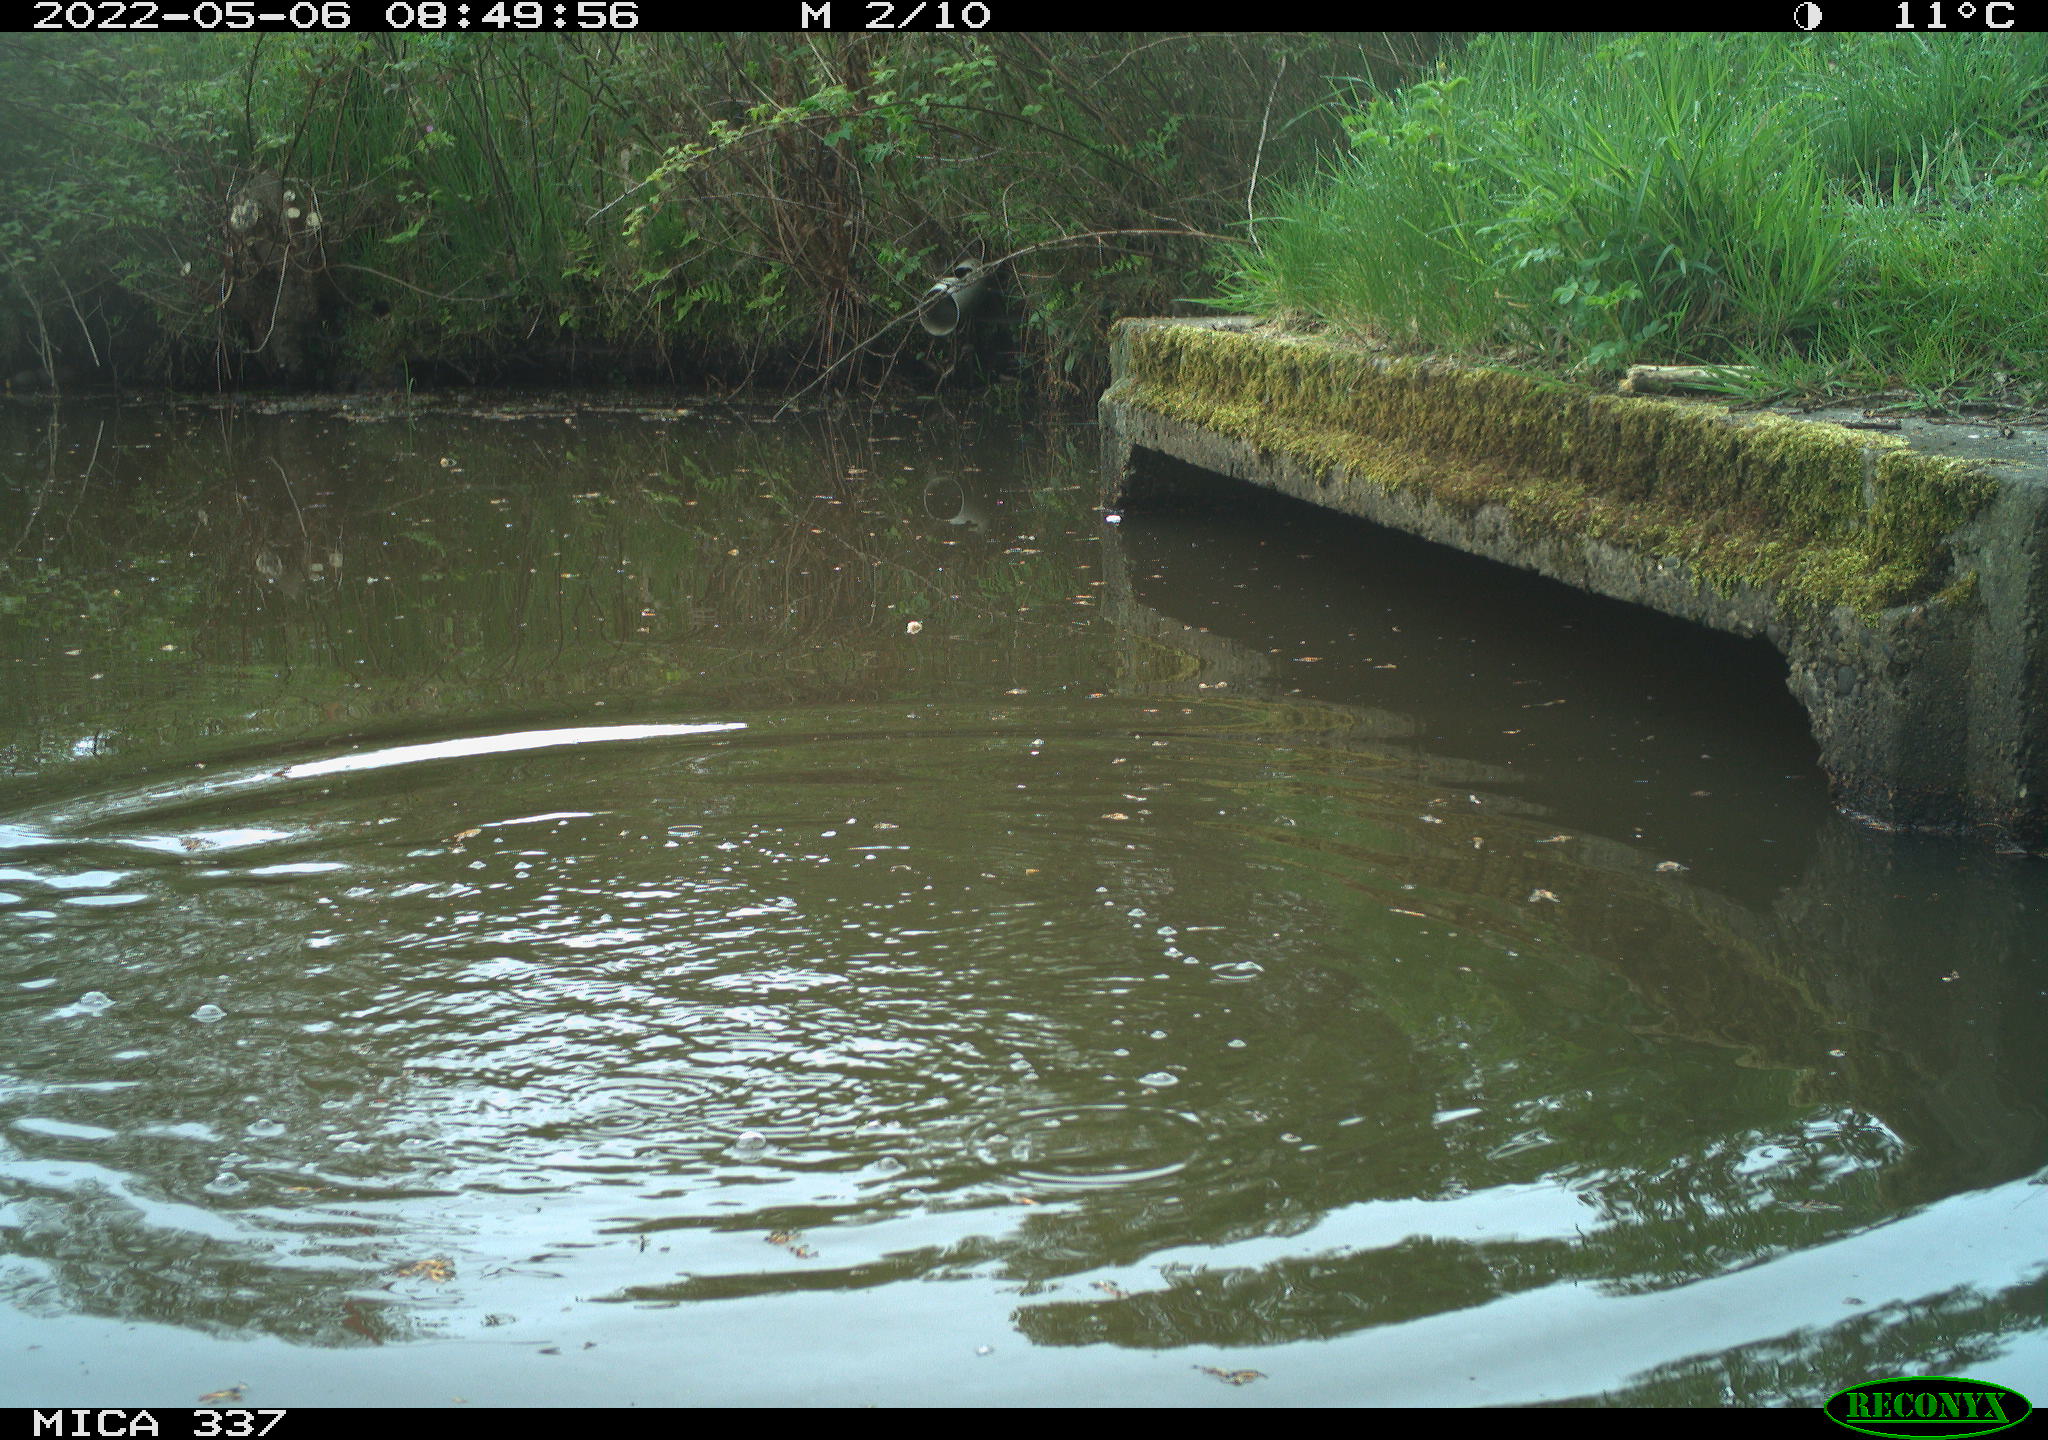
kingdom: Animalia
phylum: Chordata
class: Aves
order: Gruiformes
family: Rallidae
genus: Gallinula
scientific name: Gallinula chloropus
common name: Common moorhen
